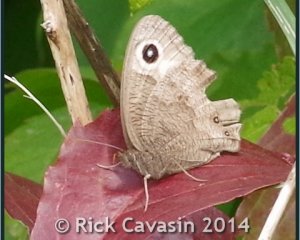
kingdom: Animalia
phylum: Arthropoda
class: Insecta
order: Lepidoptera
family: Nymphalidae
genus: Cercyonis
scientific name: Cercyonis pegala
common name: Common Wood-Nymph
